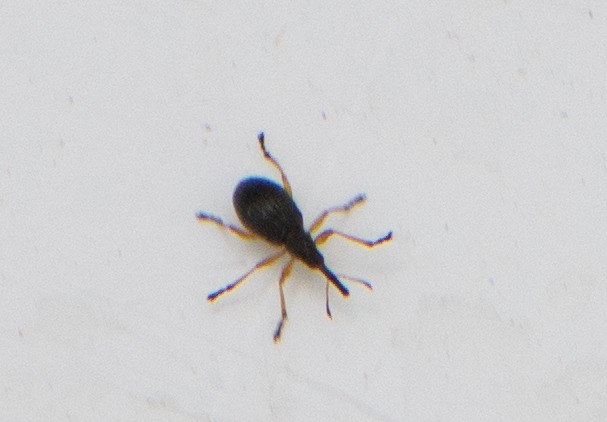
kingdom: Animalia
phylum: Arthropoda
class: Insecta
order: Coleoptera
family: Apionidae
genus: Protapion
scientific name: Protapion fulvipes
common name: Hvidkløversnudebille
